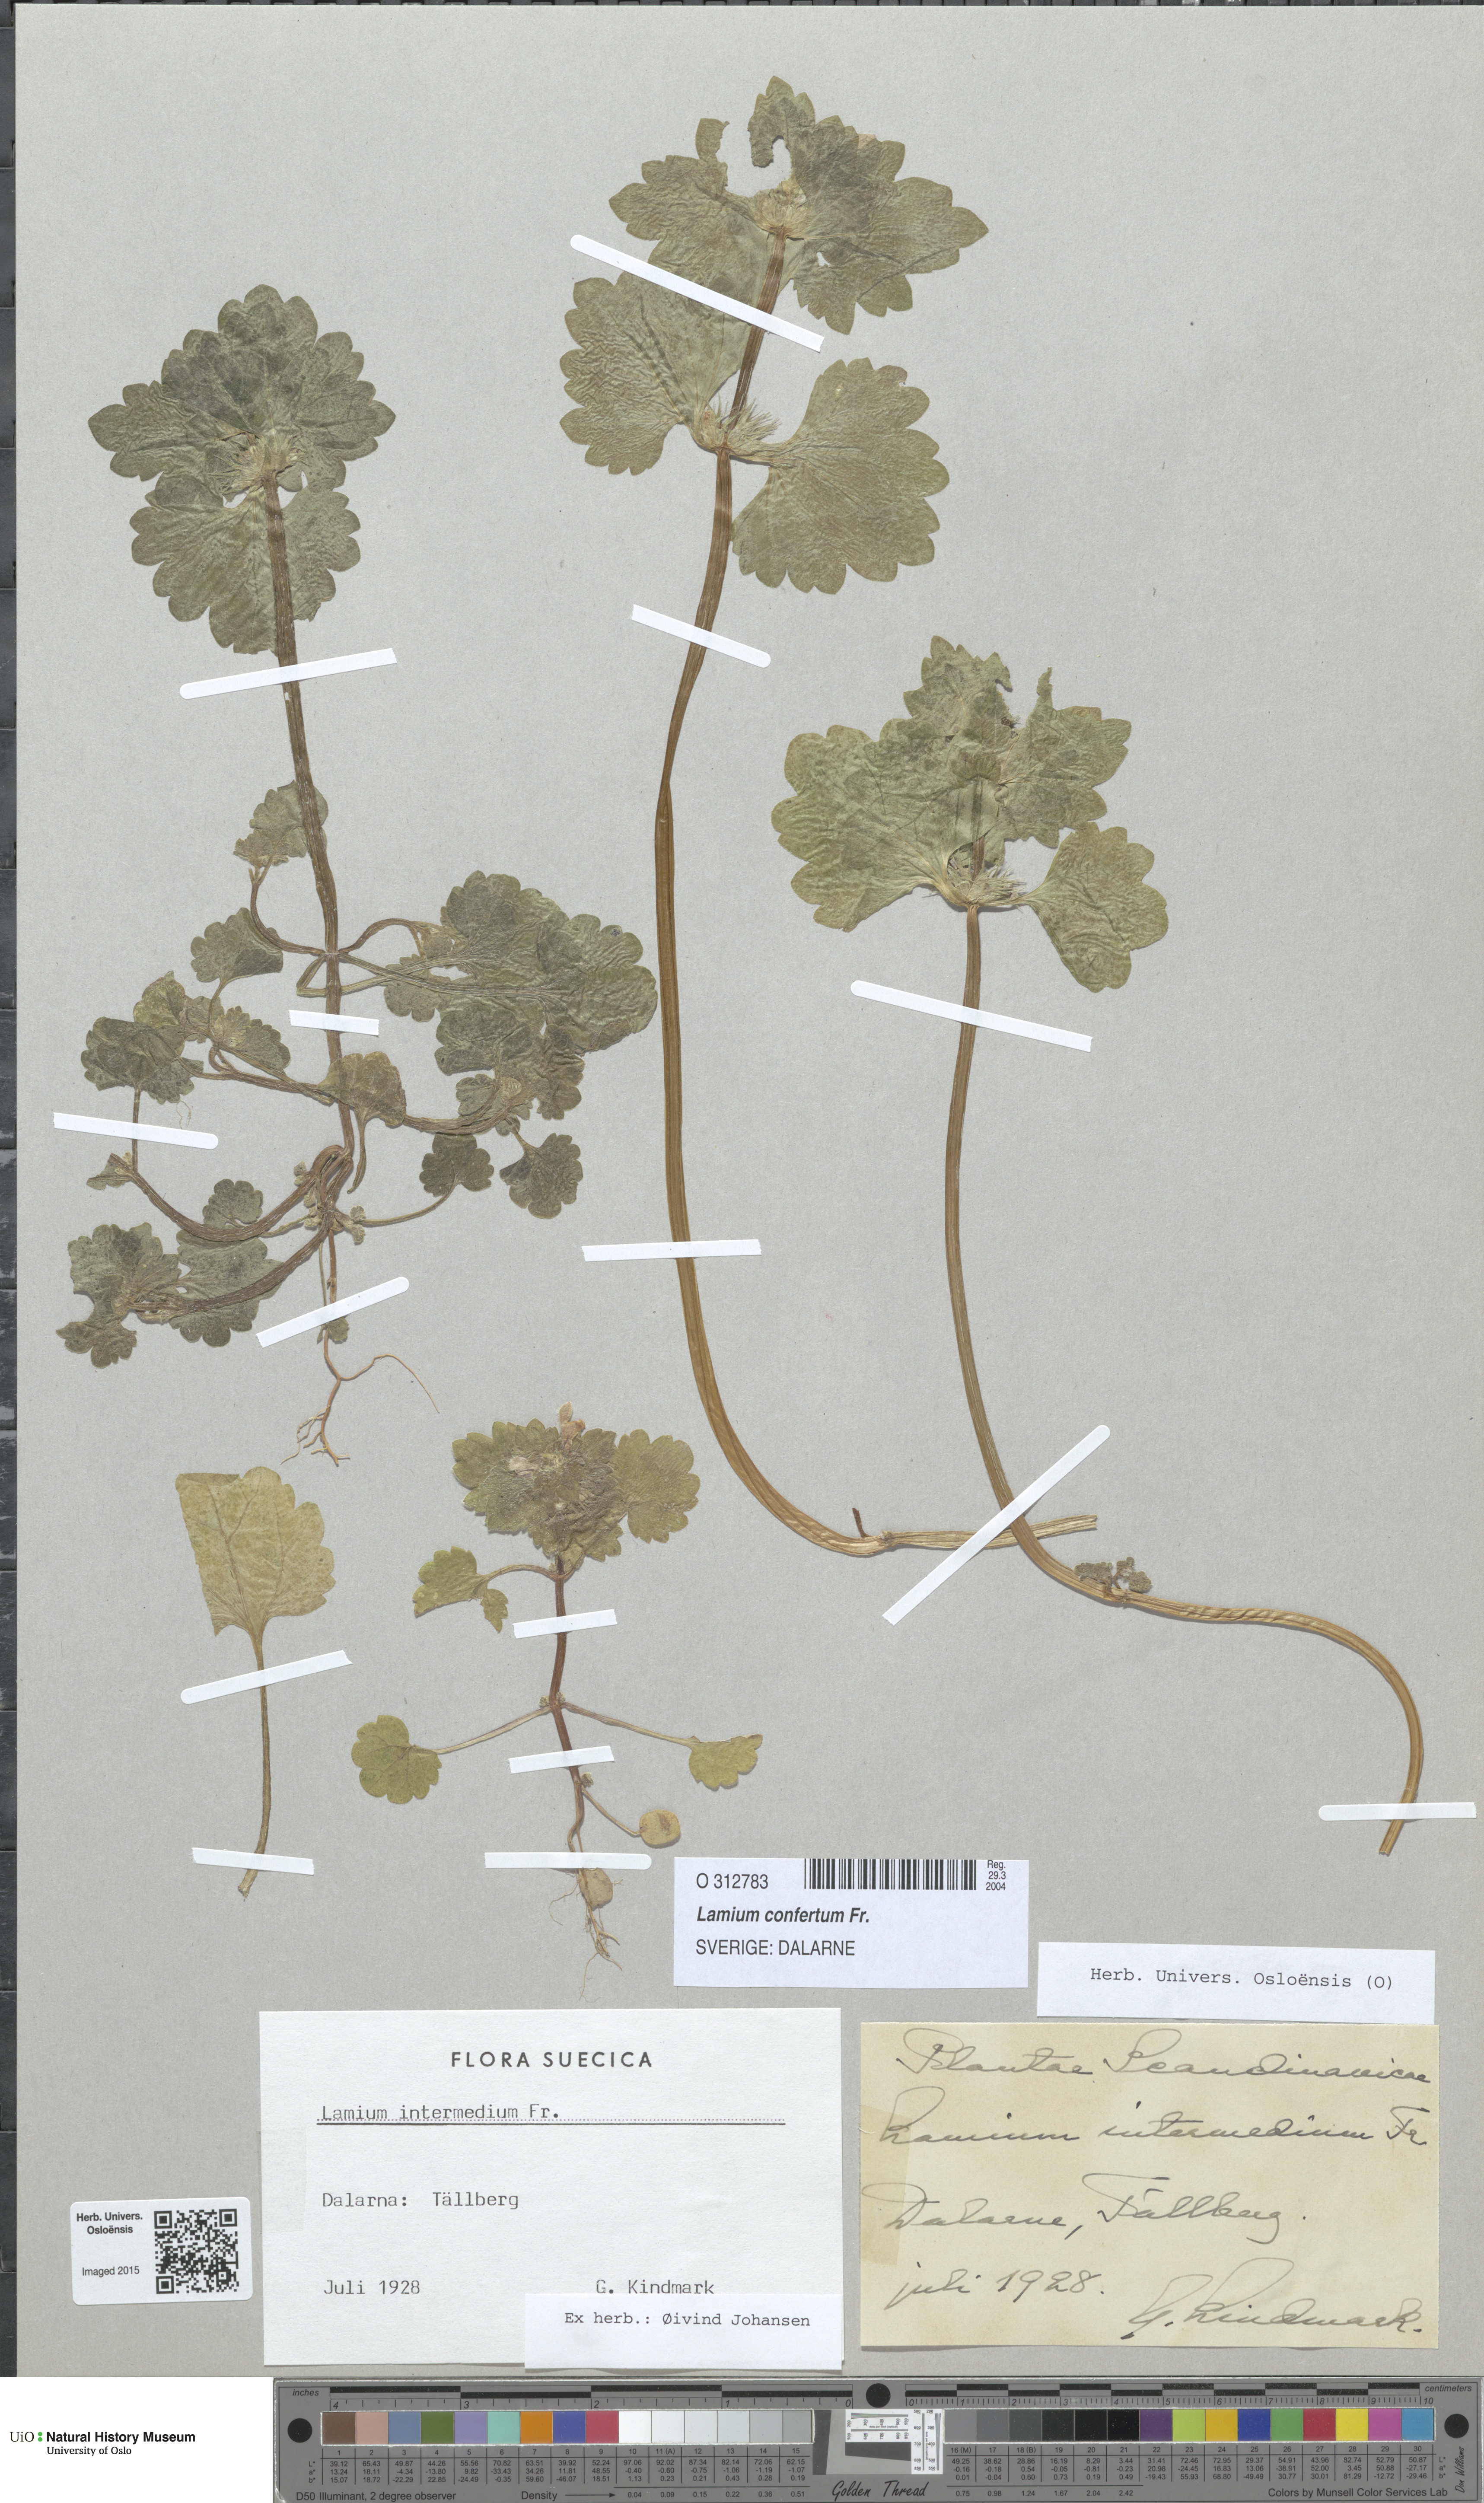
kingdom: Plantae
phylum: Tracheophyta
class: Magnoliopsida
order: Lamiales
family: Lamiaceae
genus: Lamium
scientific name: Lamium confertum
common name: Northern dead-nettle
